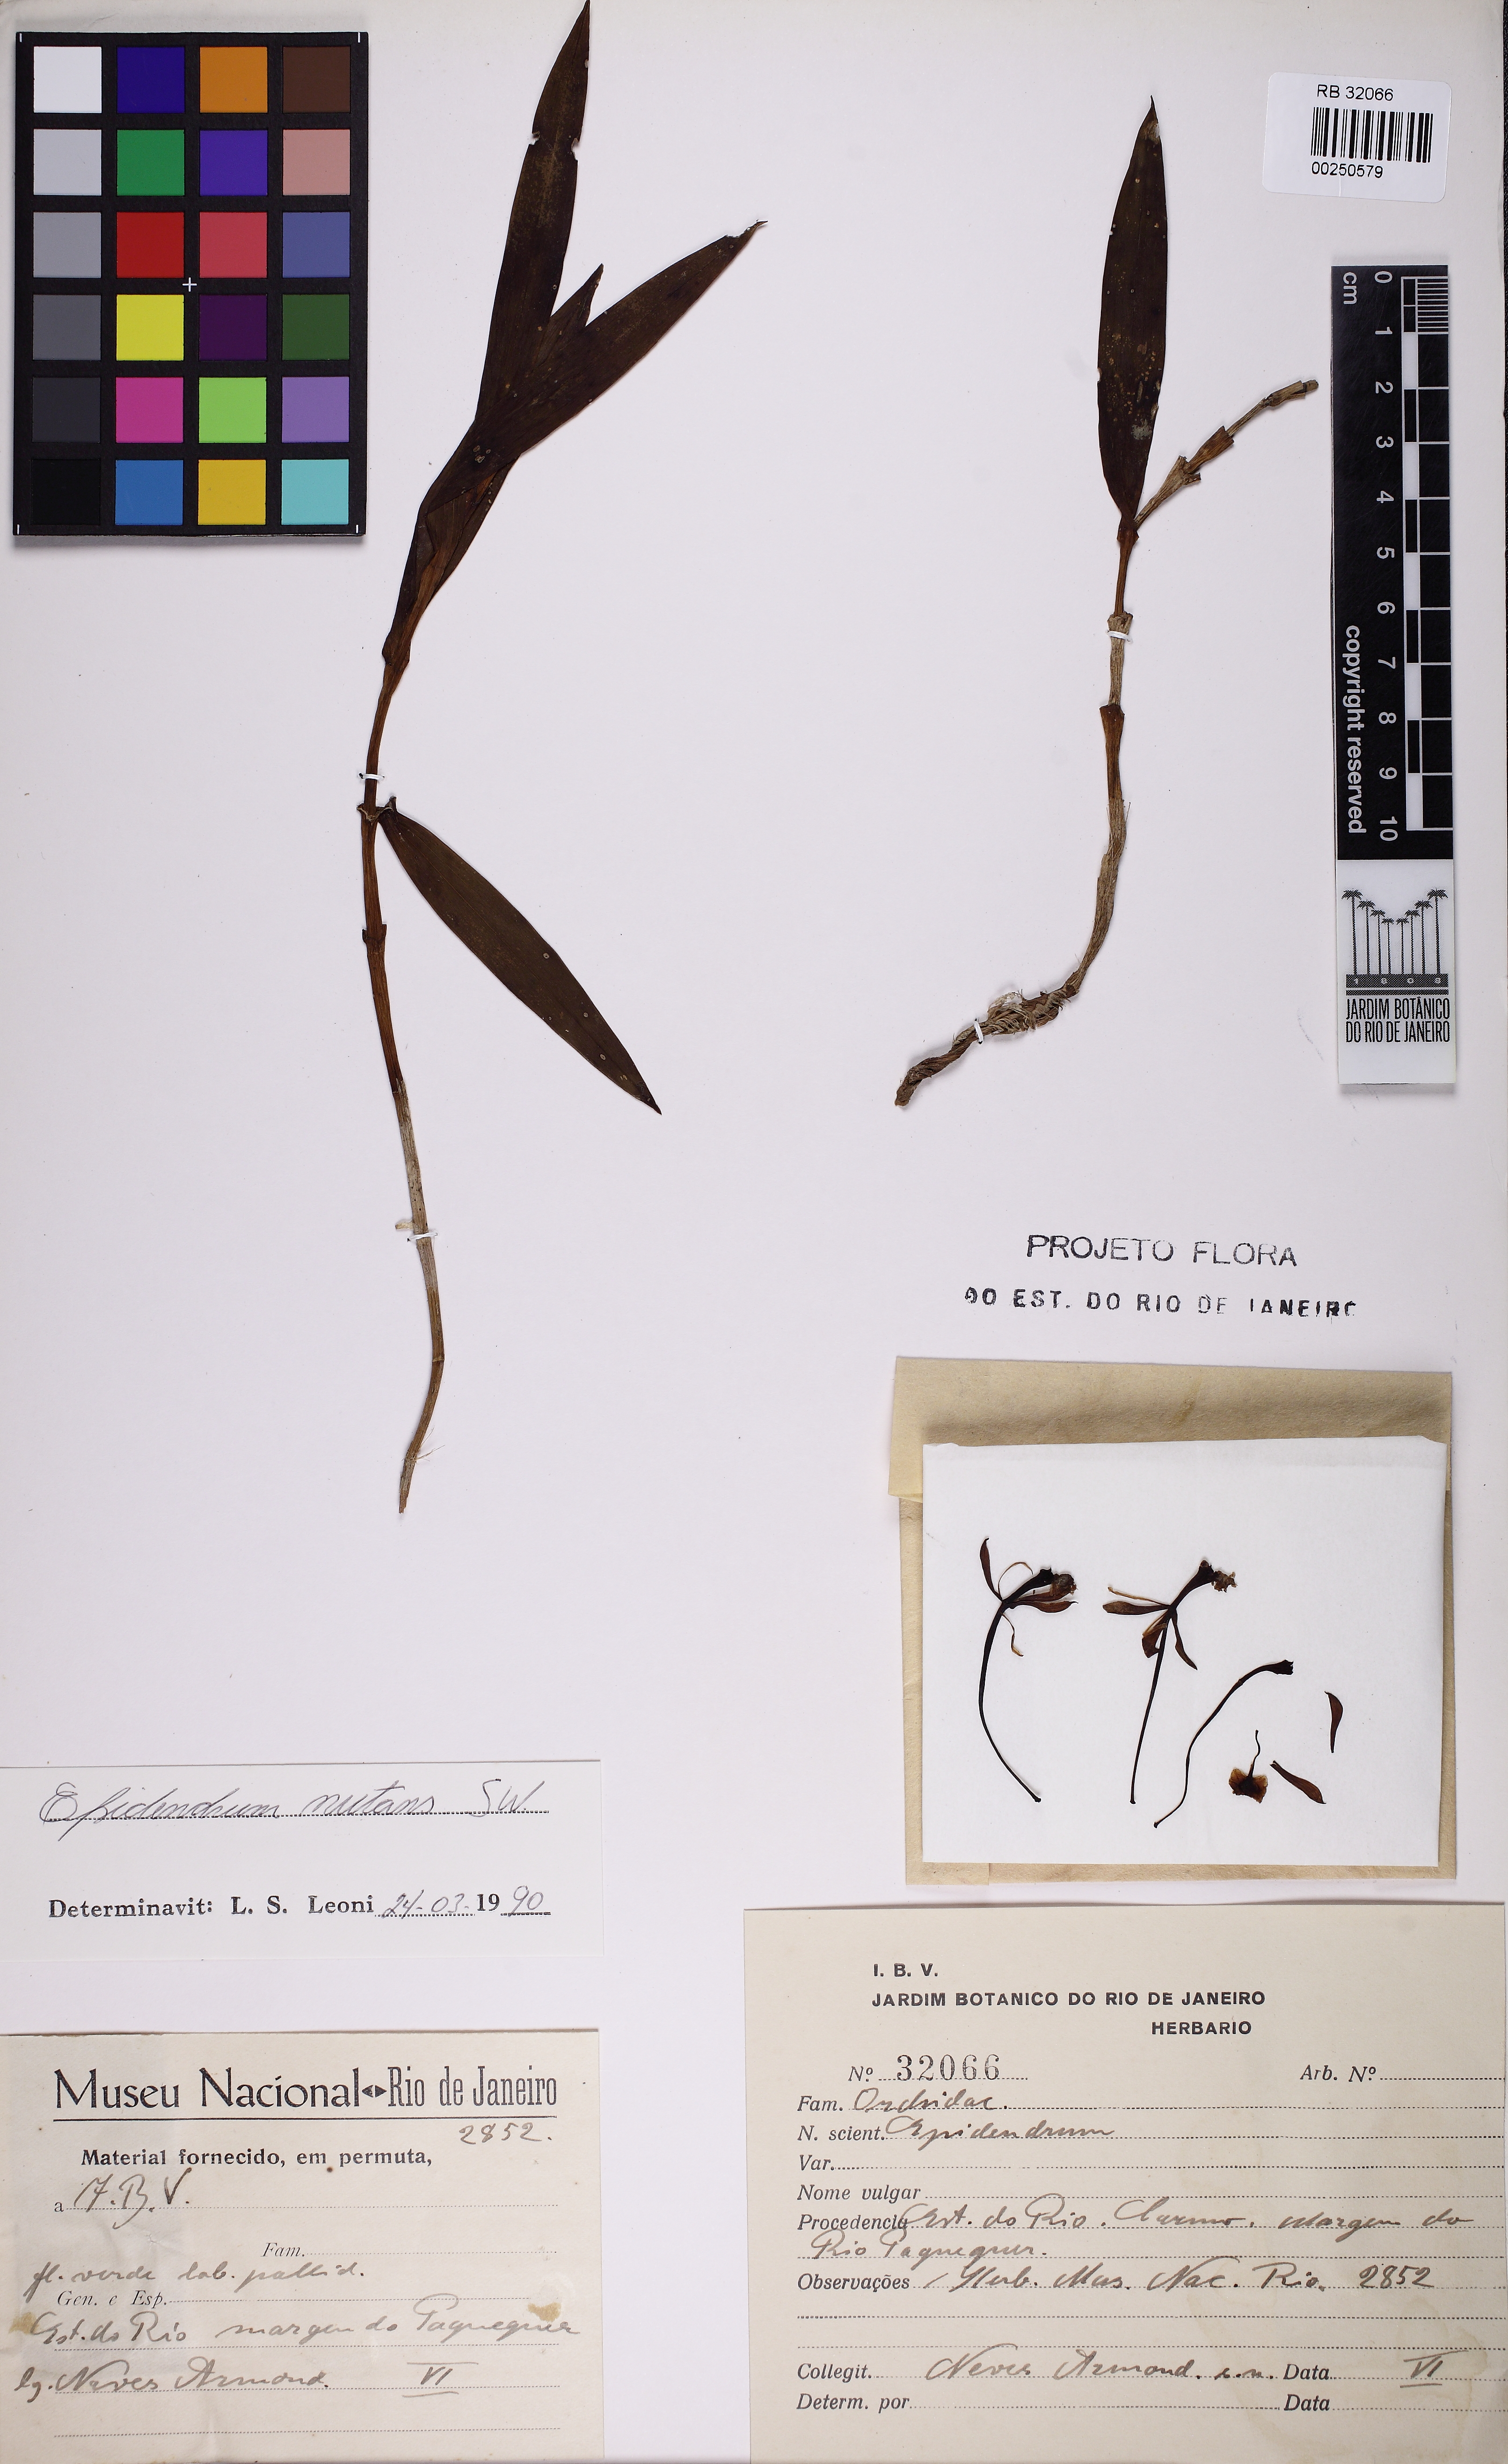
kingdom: Plantae
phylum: Tracheophyta
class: Liliopsida
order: Asparagales
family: Orchidaceae
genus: Epidendrum
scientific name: Epidendrum nutans
